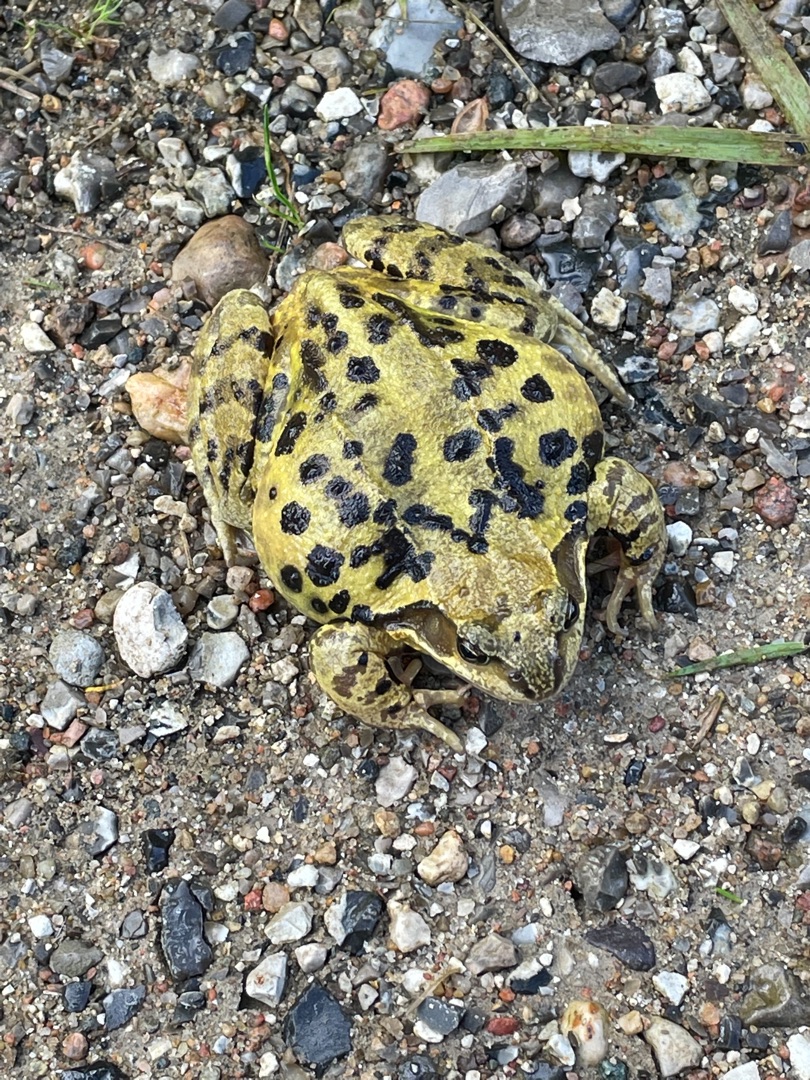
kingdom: Animalia
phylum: Chordata
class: Amphibia
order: Anura
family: Ranidae
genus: Rana
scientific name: Rana temporaria
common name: Butsnudet frø
